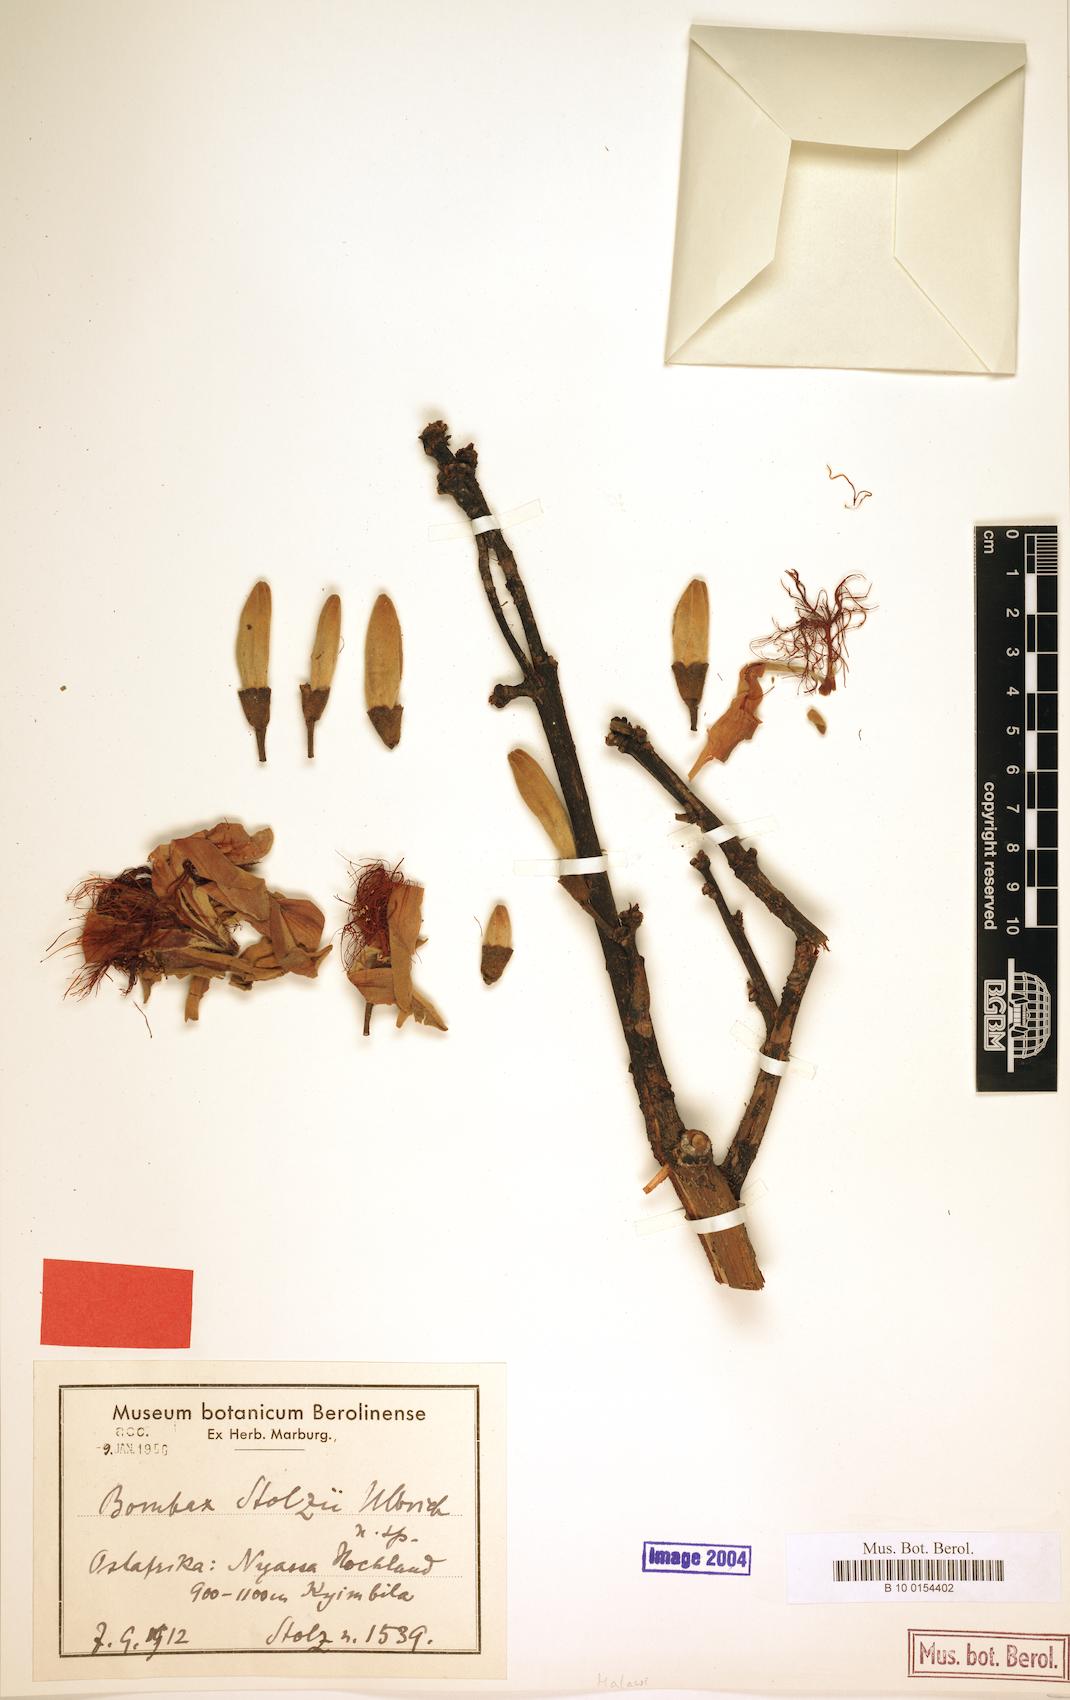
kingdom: Plantae
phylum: Tracheophyta
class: Magnoliopsida
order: Malvales
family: Malvaceae
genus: Rhodognaphalon
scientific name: Rhodognaphalon stolzii
